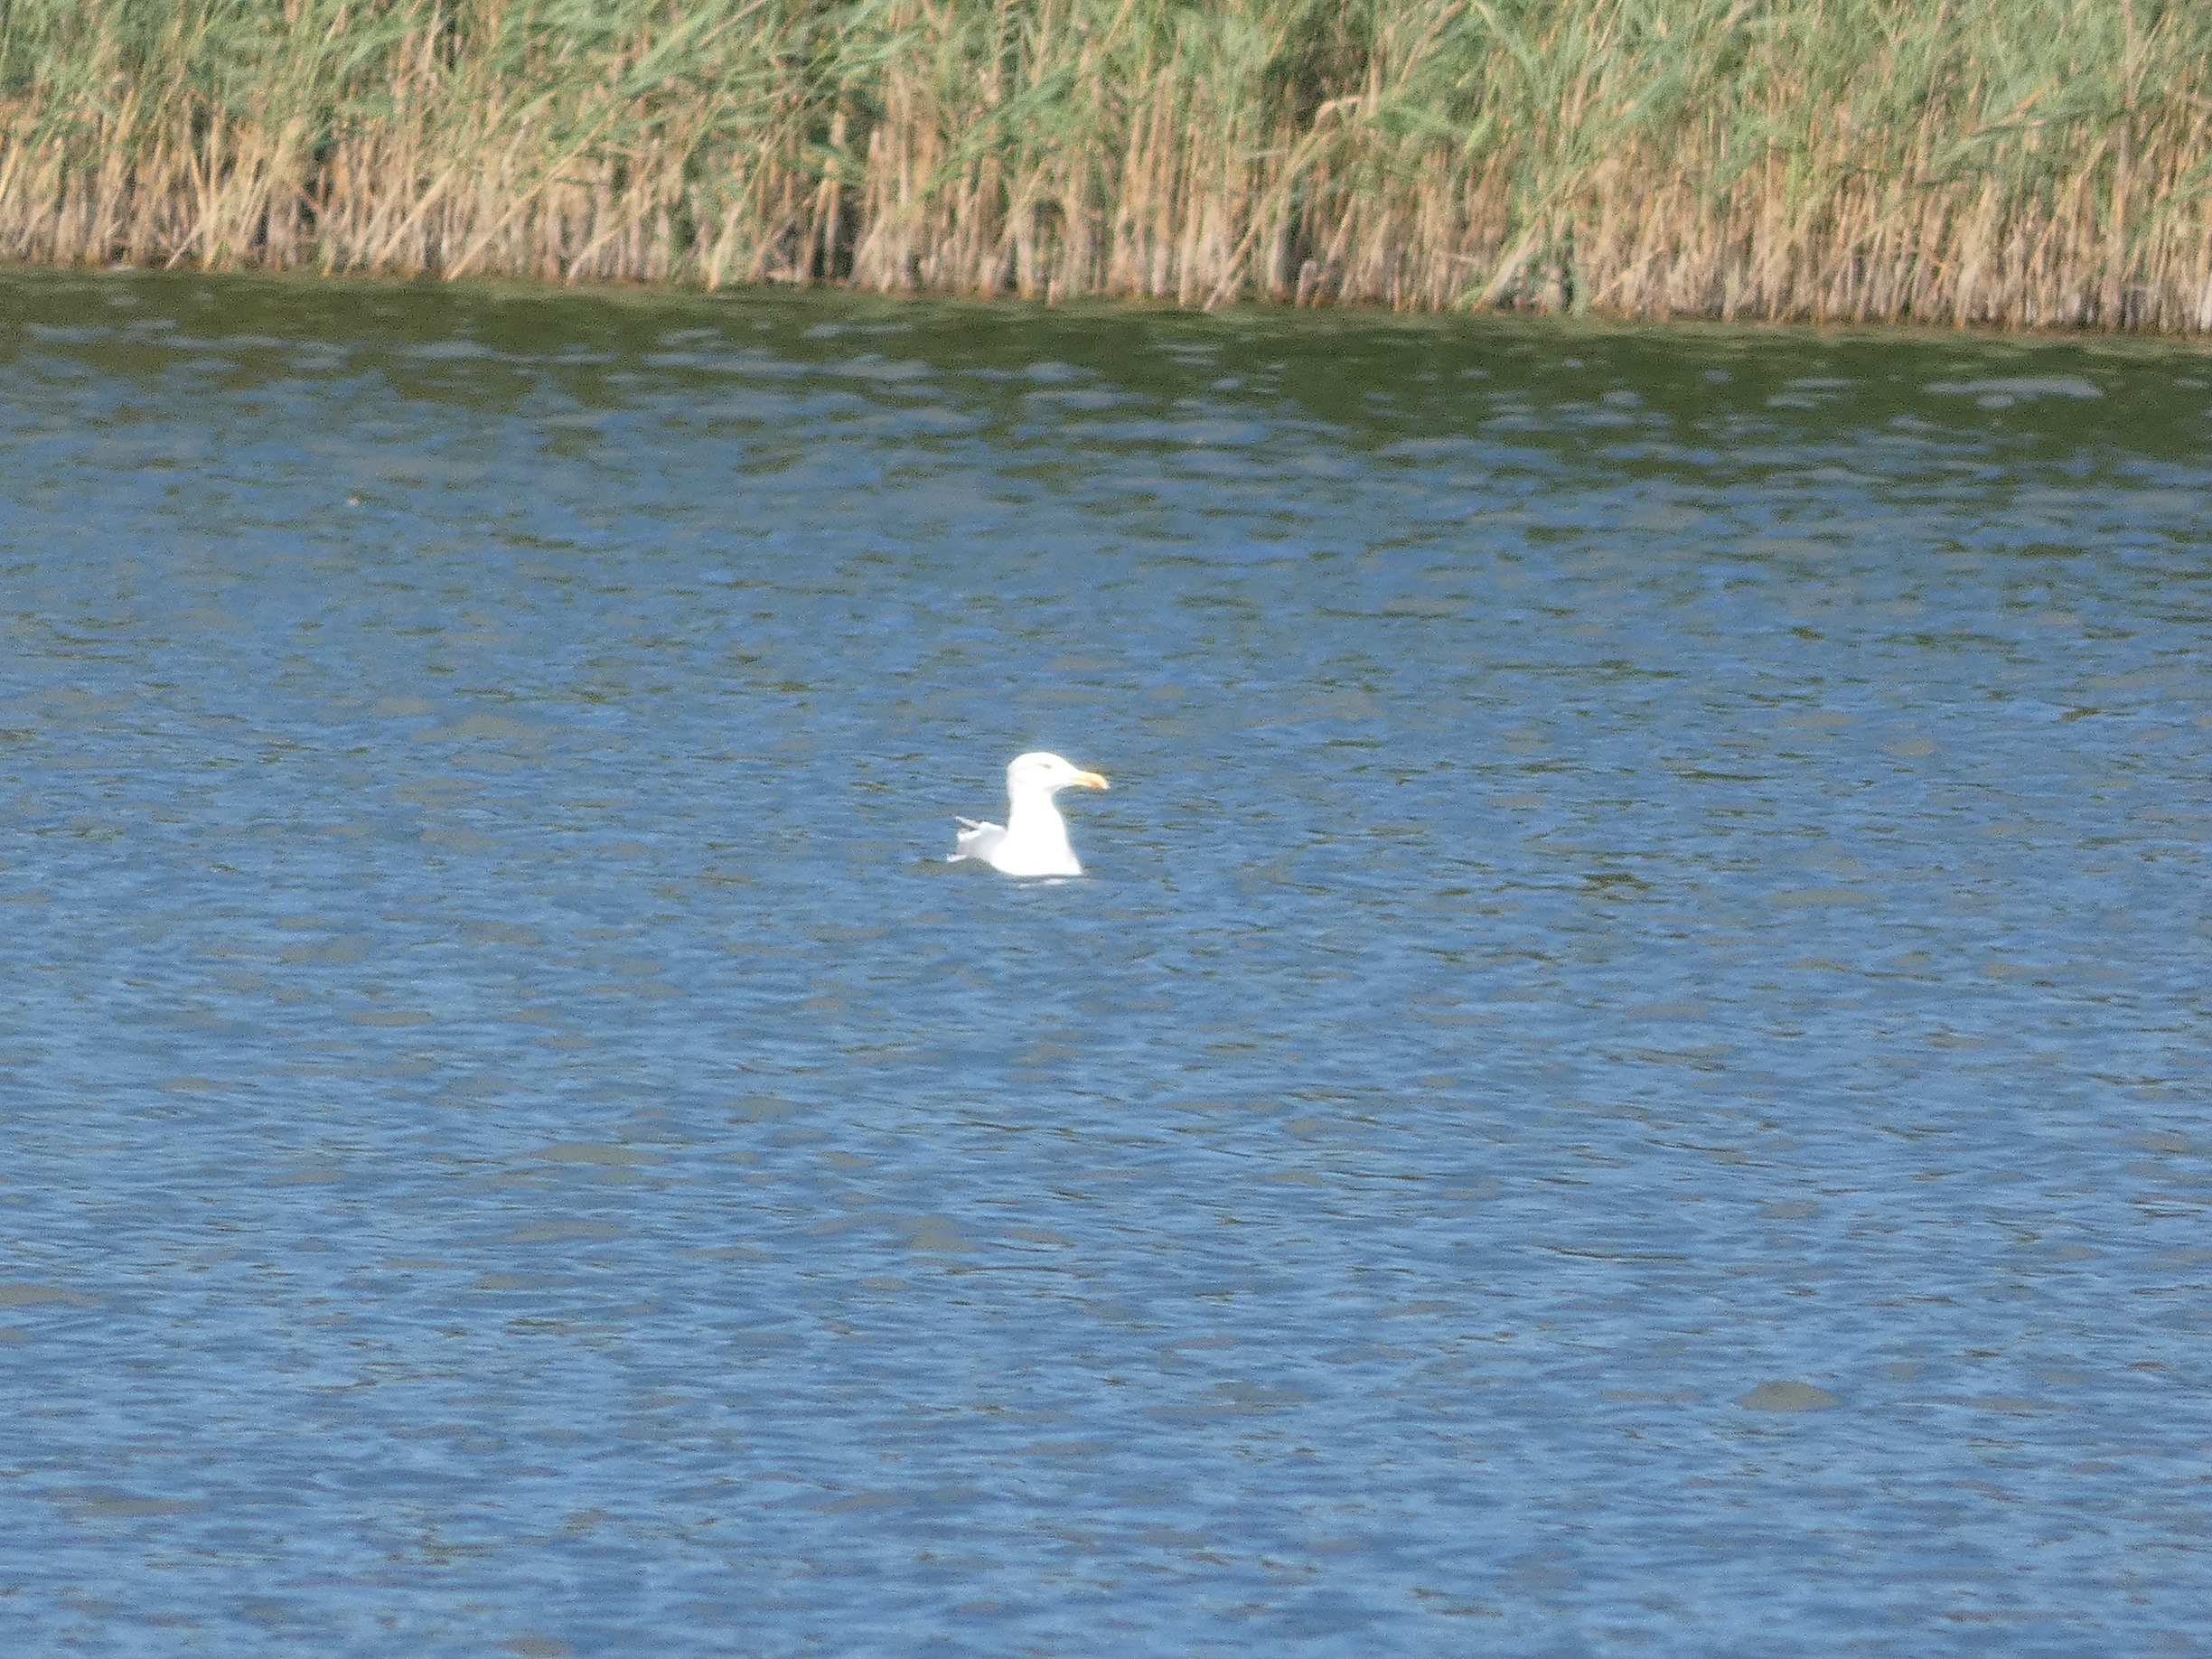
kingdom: Animalia
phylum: Chordata
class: Aves
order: Charadriiformes
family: Laridae
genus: Larus
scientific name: Larus argentatus
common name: Sølvmåge
